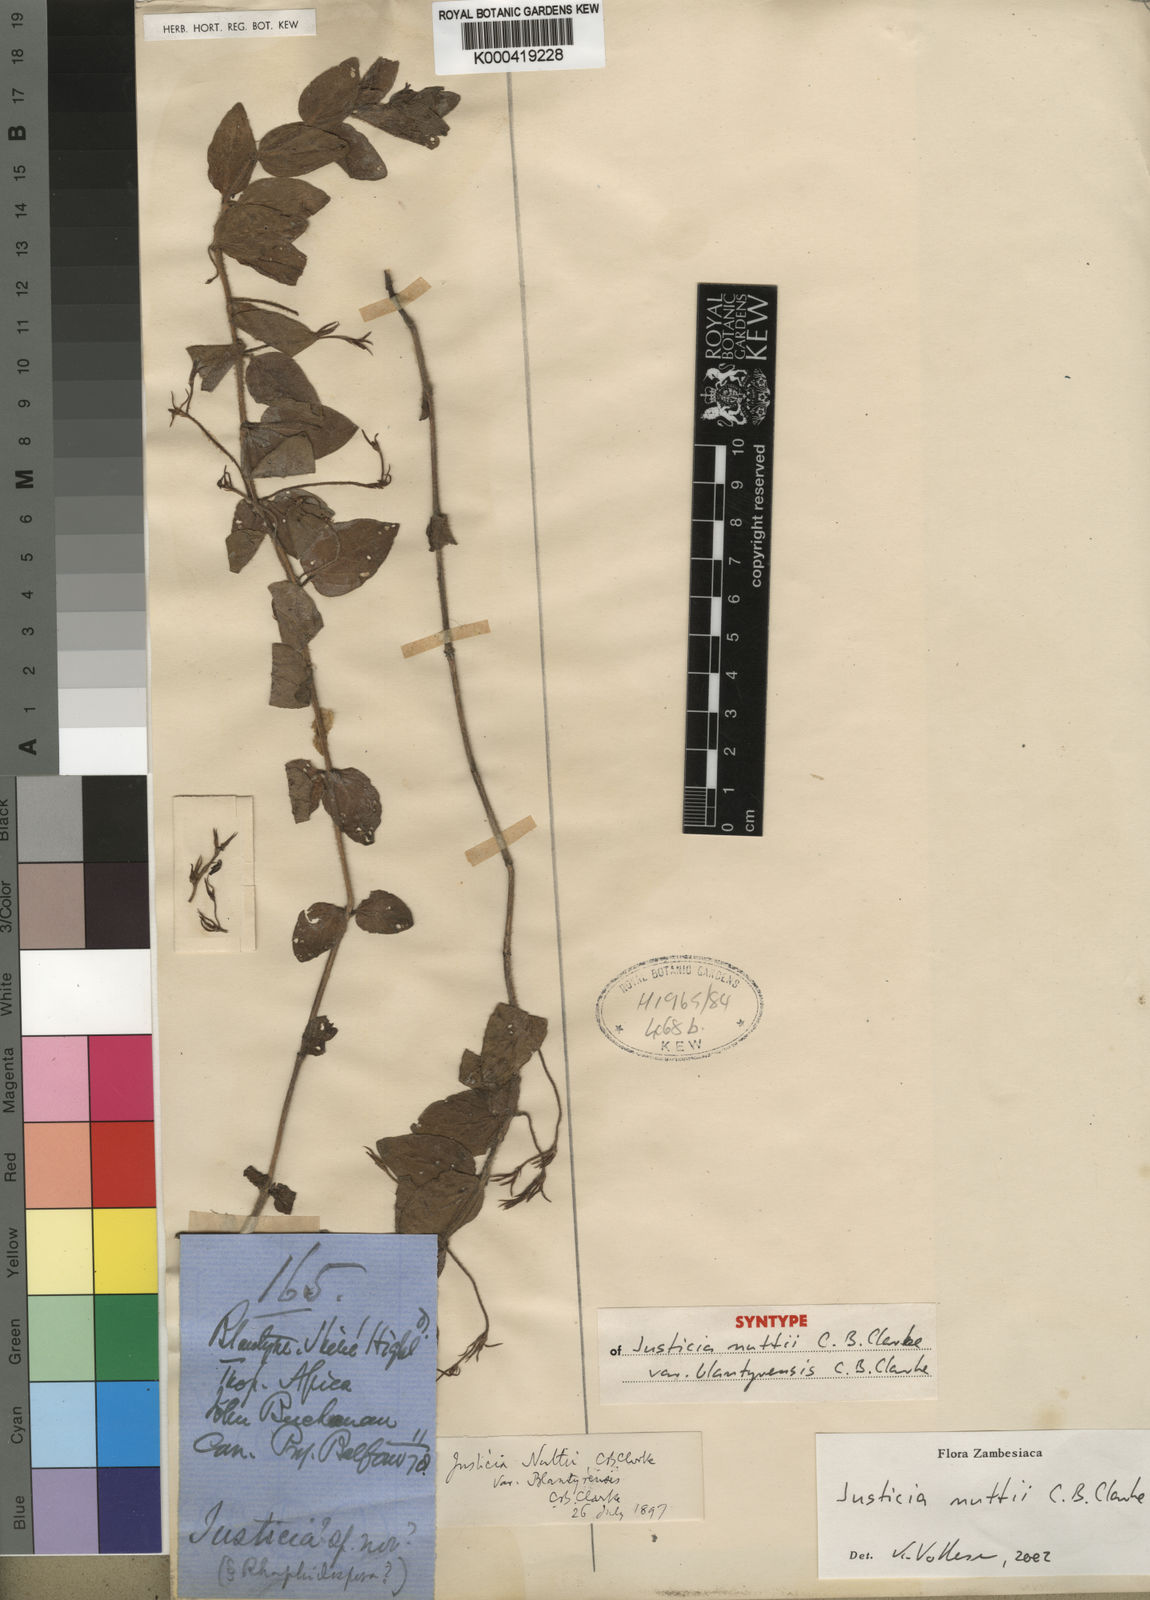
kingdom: Plantae
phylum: Tracheophyta
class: Magnoliopsida
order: Lamiales
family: Acanthaceae
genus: Justicia
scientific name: Justicia nuttii
